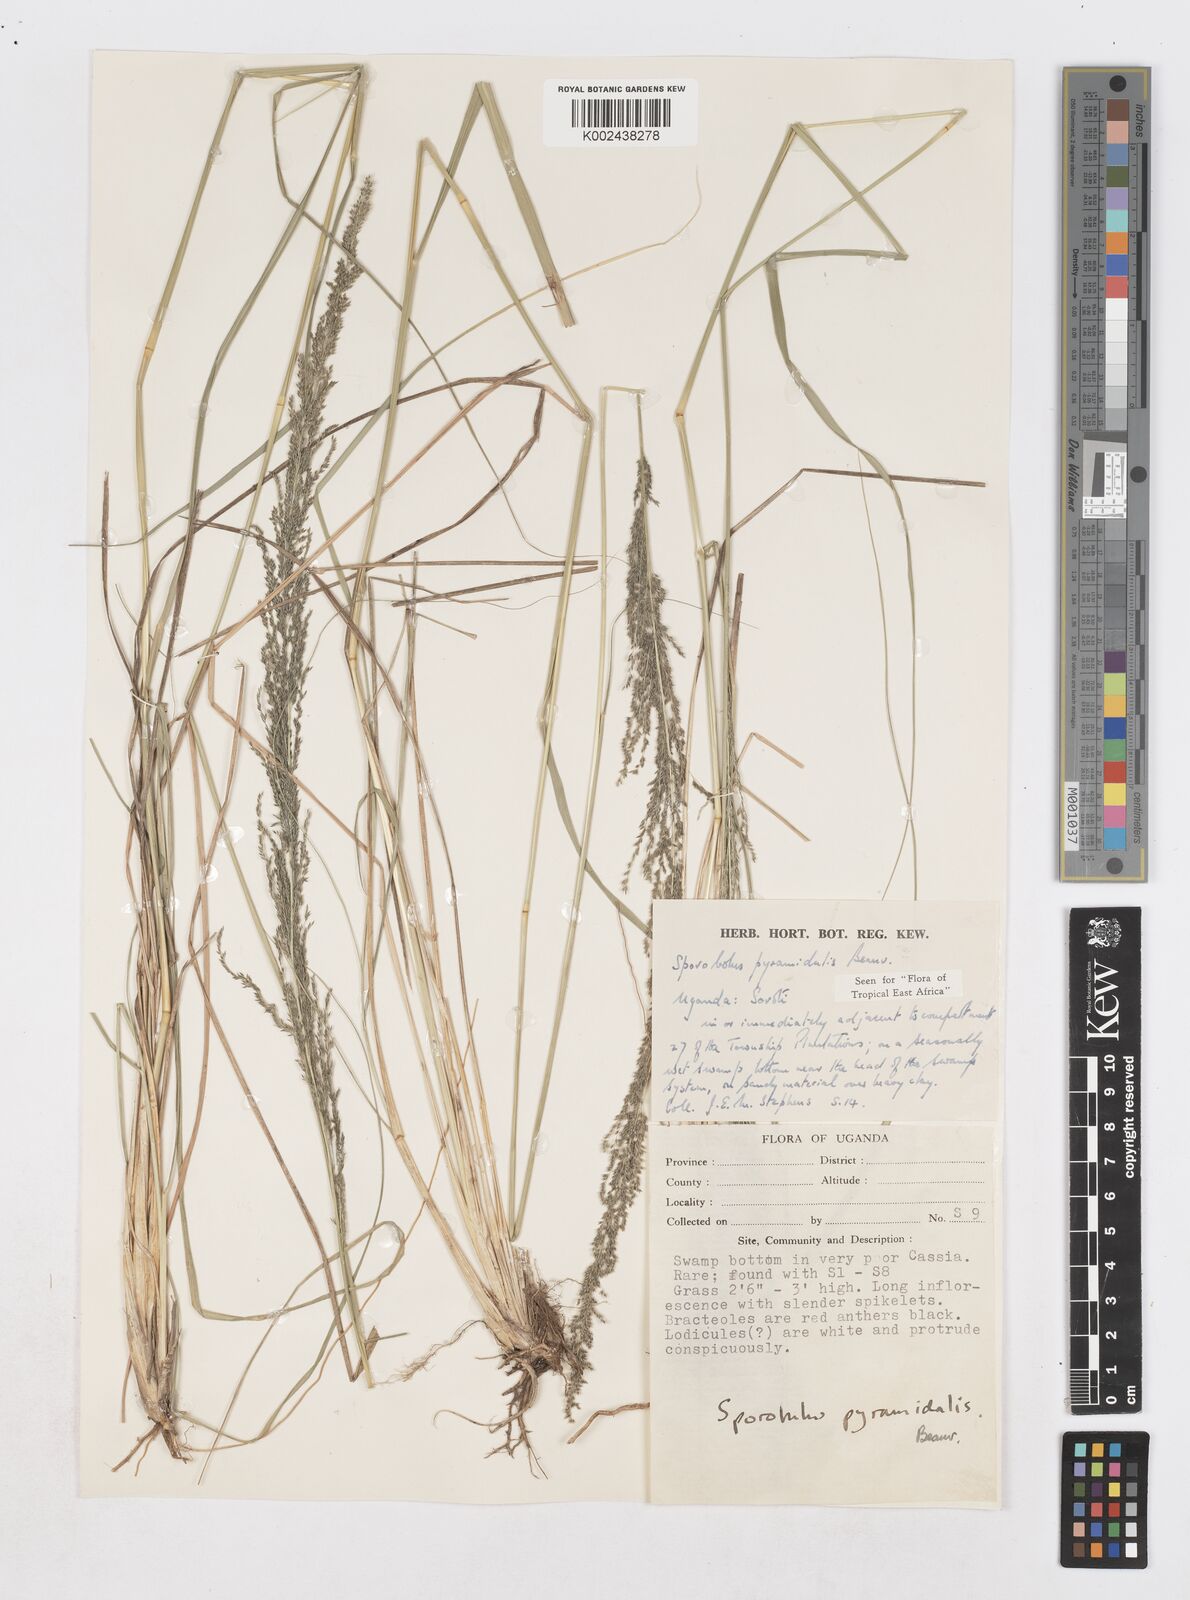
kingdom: Plantae
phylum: Tracheophyta
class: Liliopsida
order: Poales
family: Poaceae
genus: Sporobolus
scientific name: Sporobolus pyramidalis
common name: West indian dropseed
